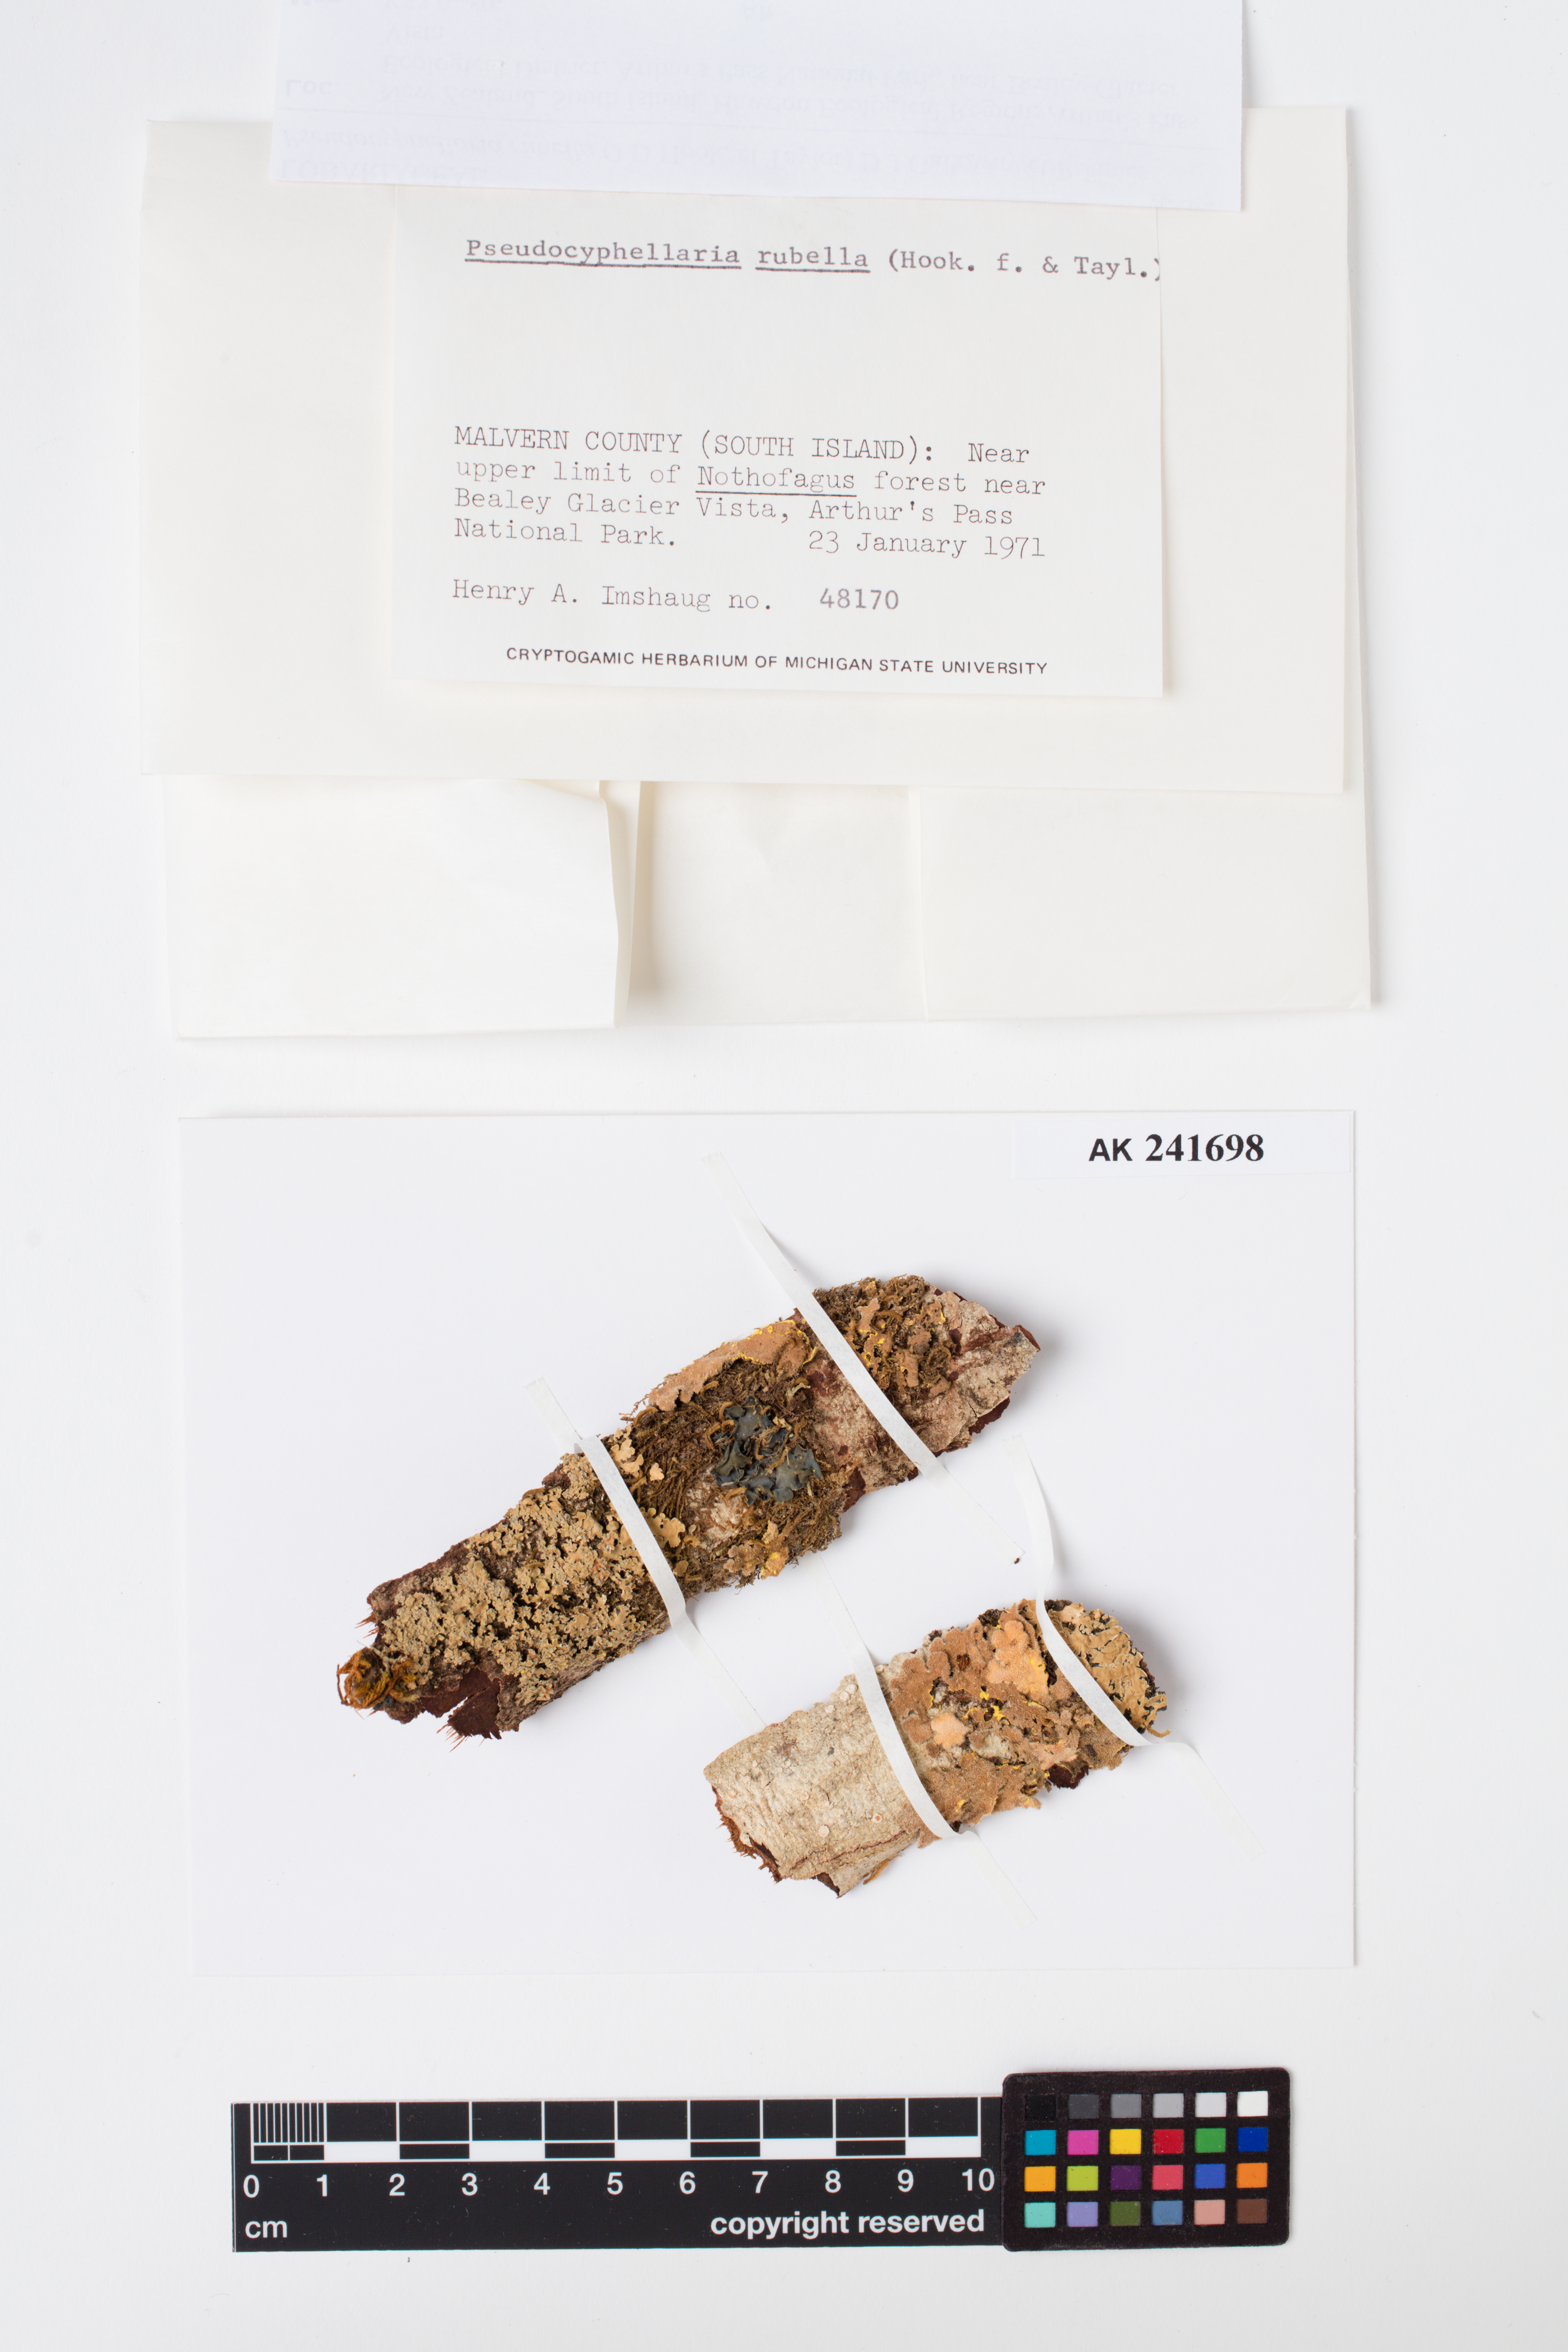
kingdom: Fungi
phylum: Ascomycota
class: Lecanoromycetes
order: Peltigerales
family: Lobariaceae
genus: Pseudocyphellaria
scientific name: Pseudocyphellaria rubella
